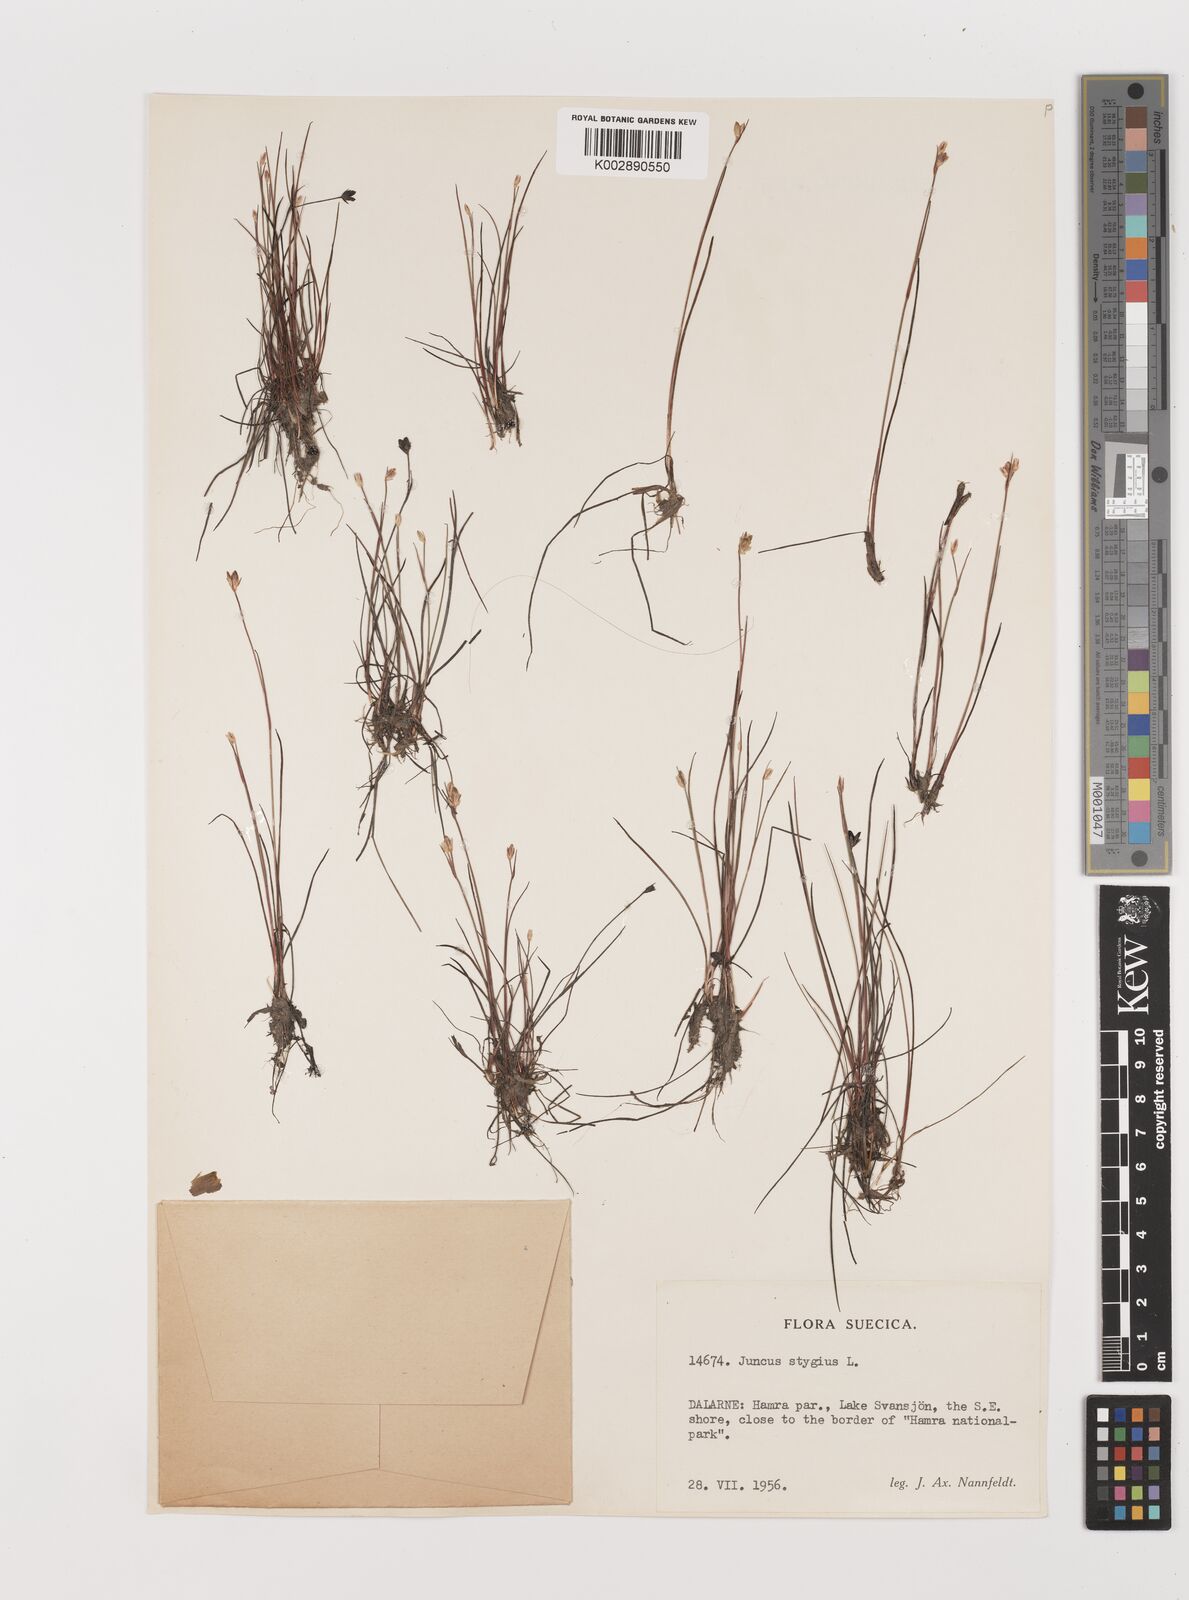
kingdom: Plantae
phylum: Tracheophyta
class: Liliopsida
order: Poales
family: Juncaceae
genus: Juncus
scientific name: Juncus stygius
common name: Bog rush
